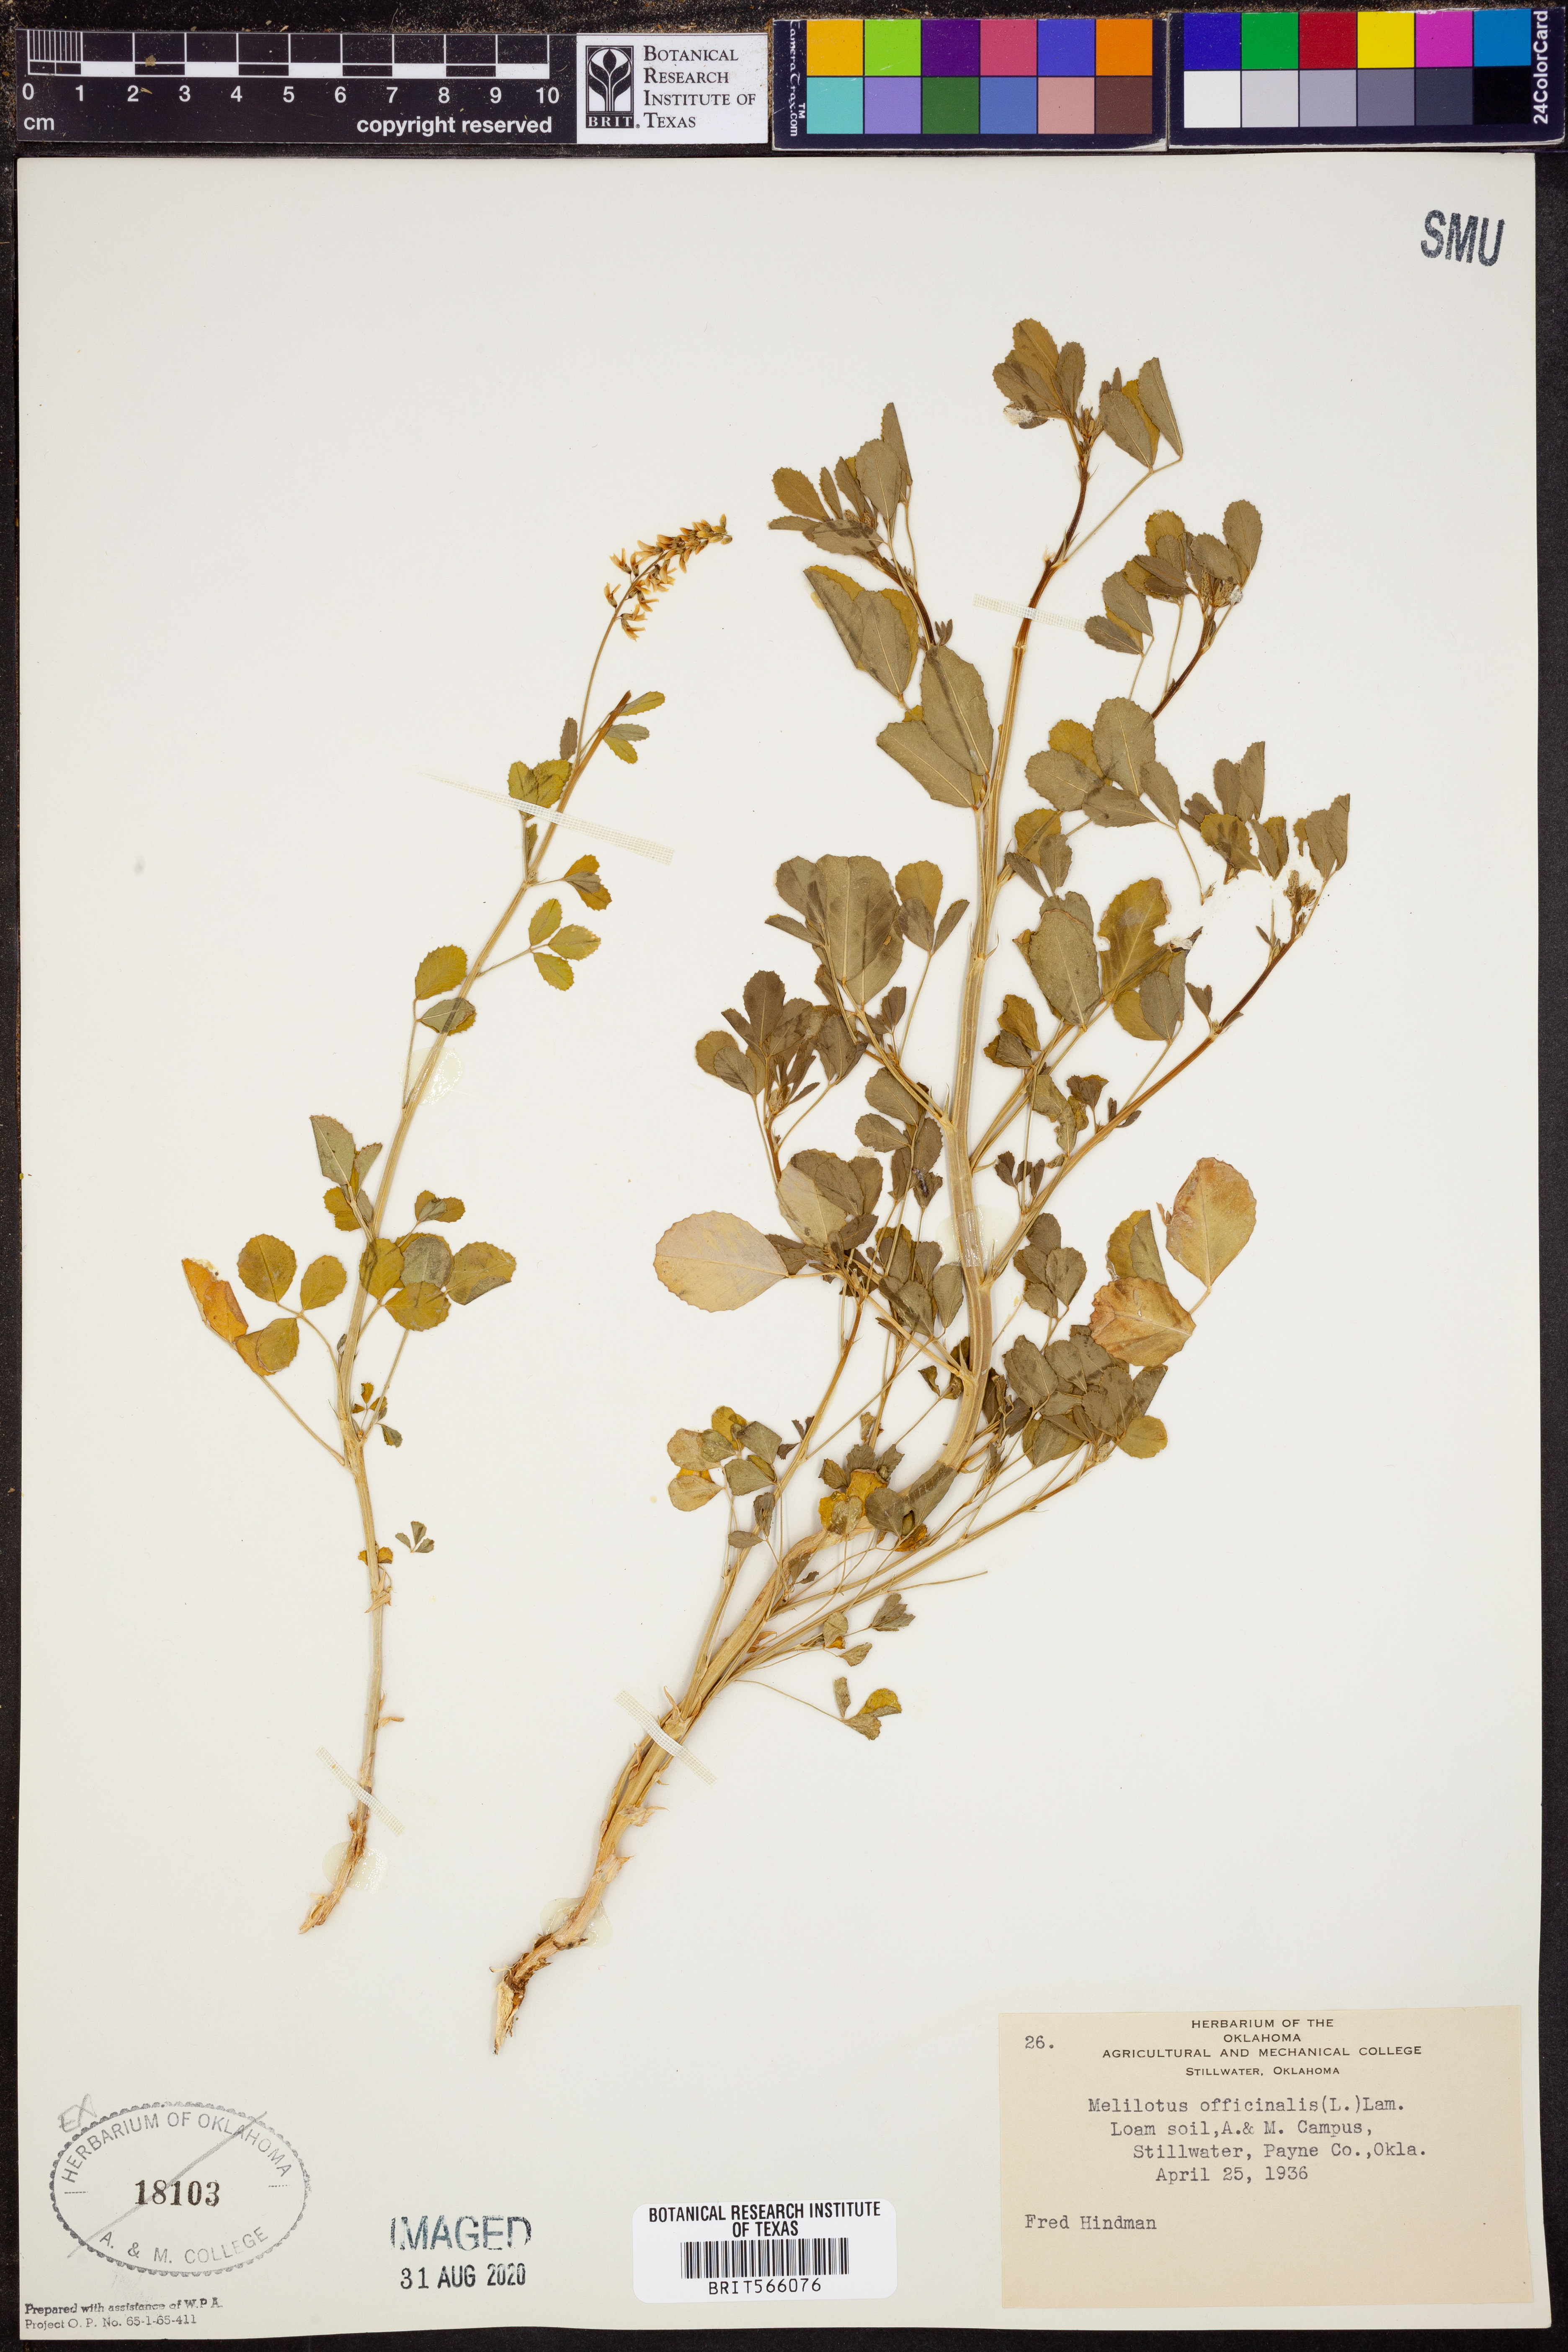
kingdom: Plantae
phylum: Tracheophyta
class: Magnoliopsida
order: Fabales
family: Fabaceae
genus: Melilotus
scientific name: Melilotus officinalis
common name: Sweetclover
